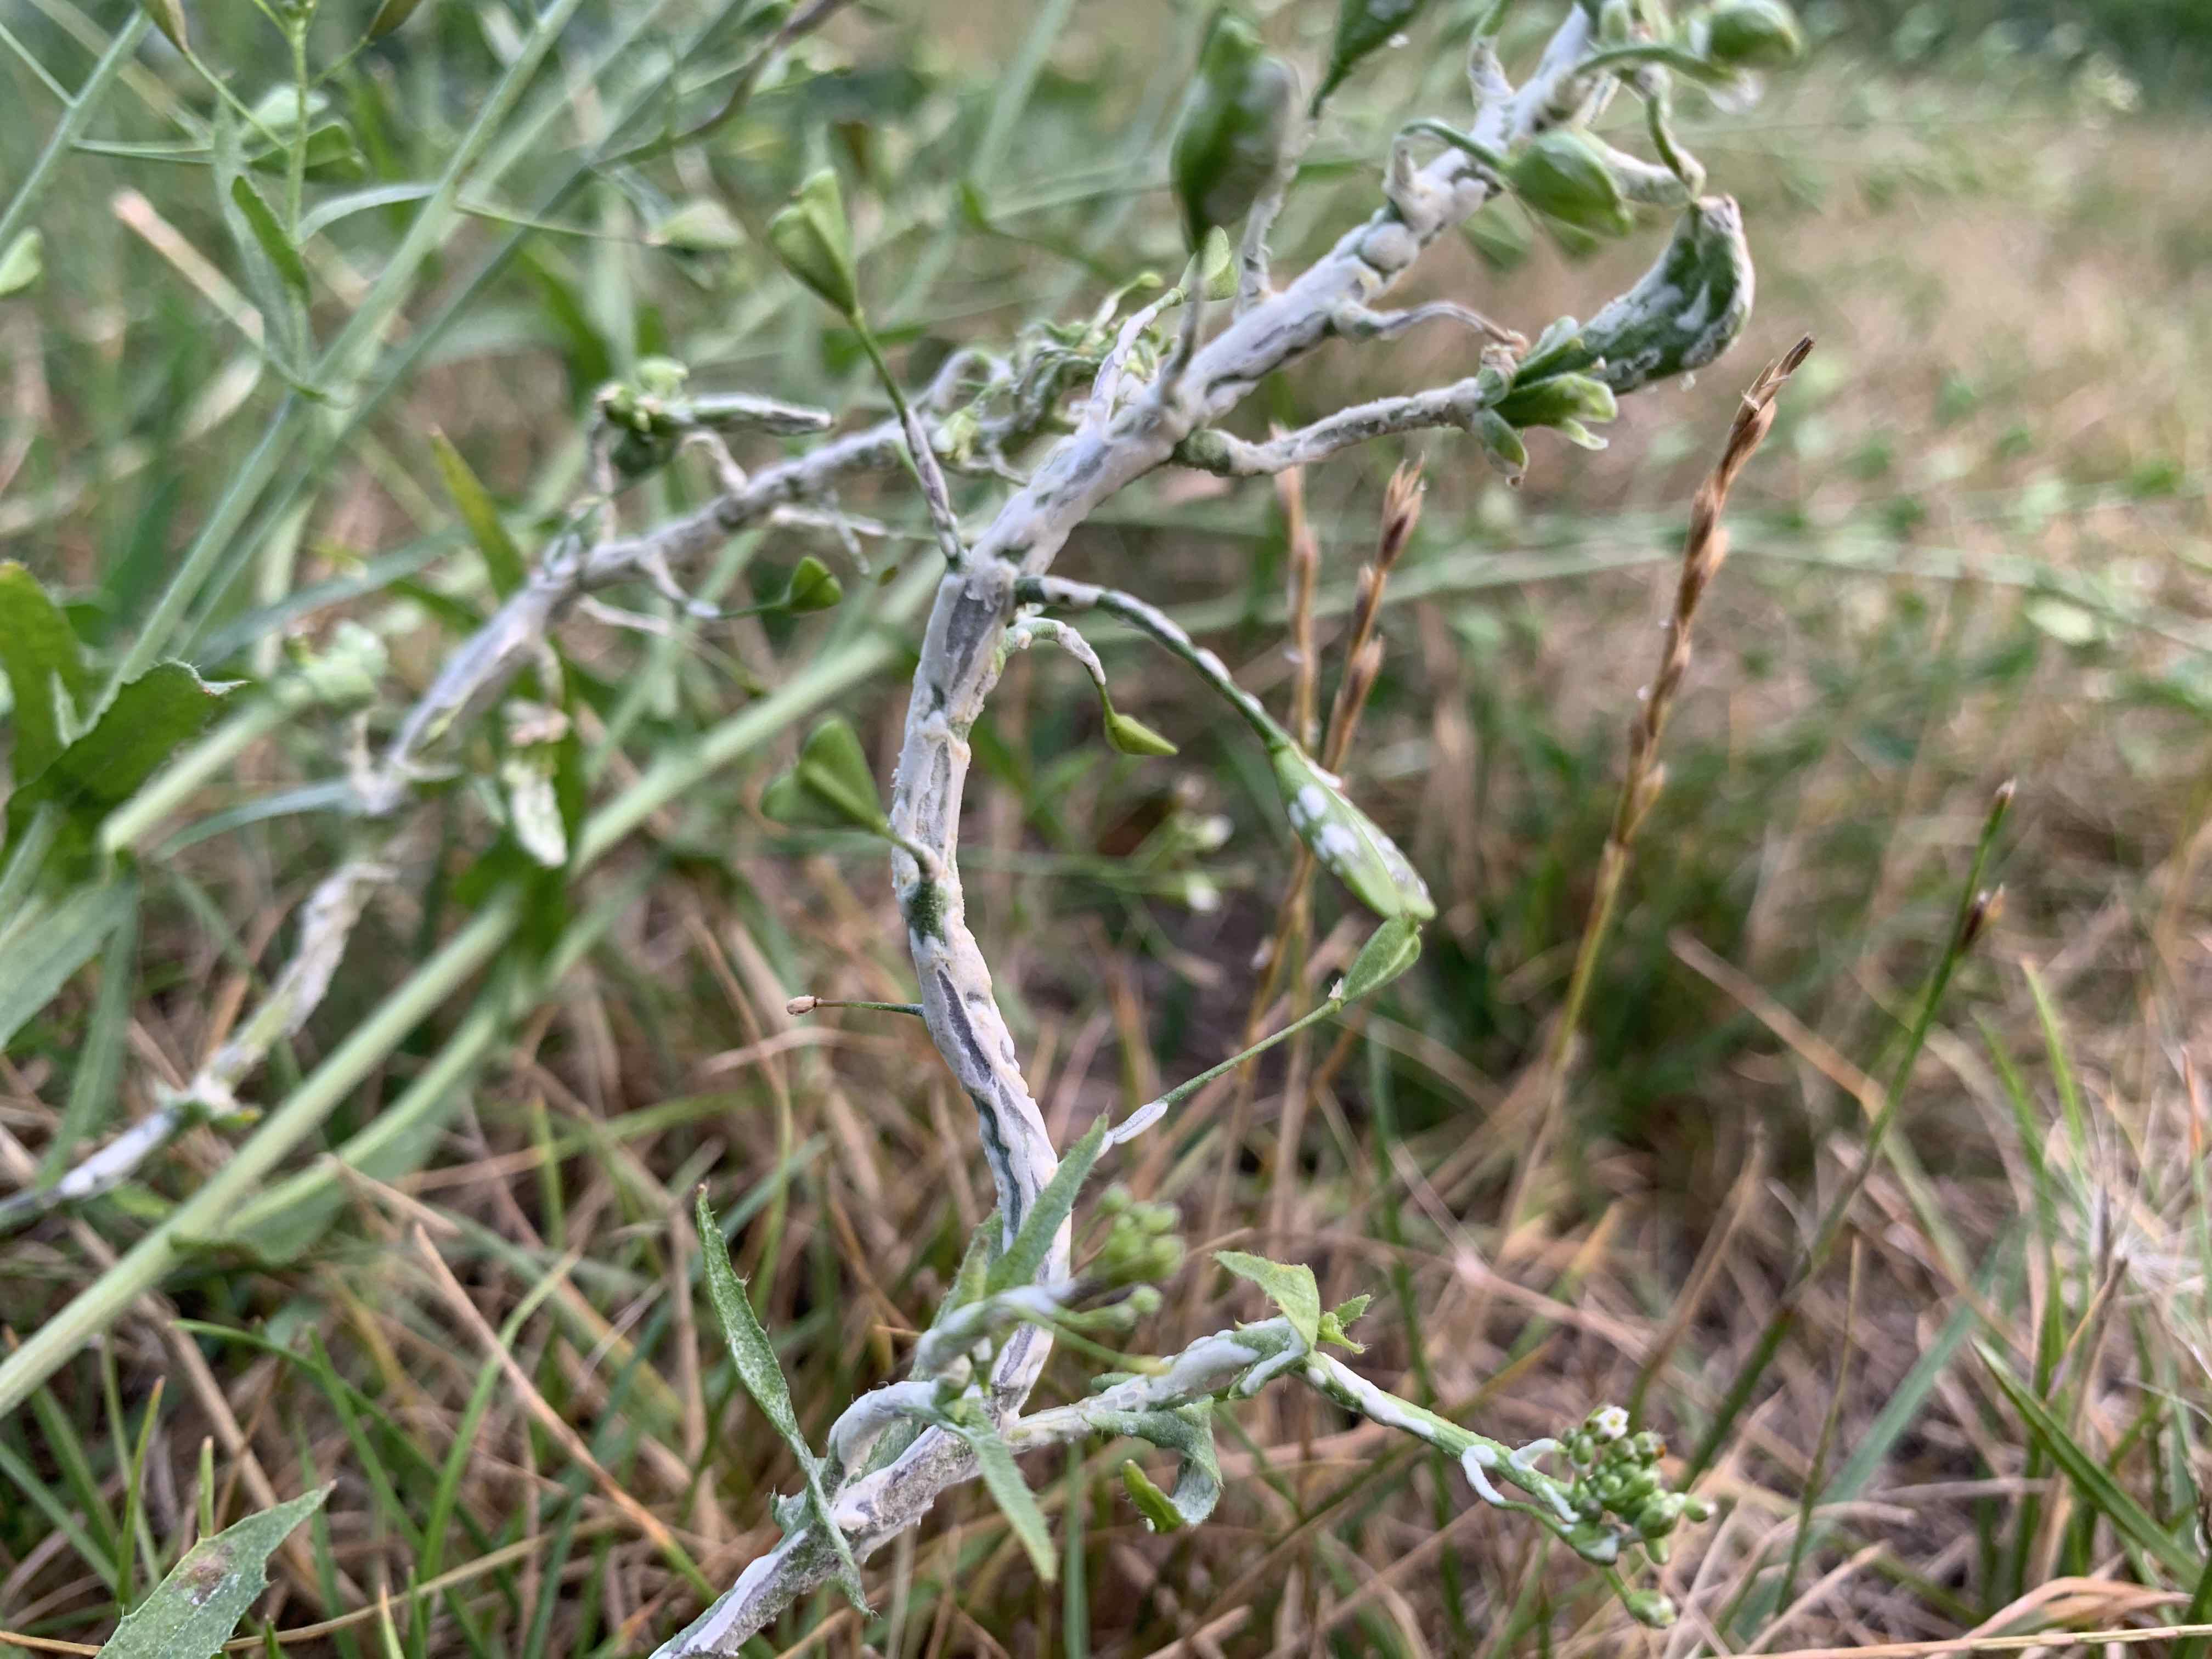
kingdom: Chromista
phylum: Oomycota
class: Peronosporea
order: Albuginales
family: Albuginaceae
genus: Albugo
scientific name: Albugo candida
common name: Crucifer white blister
